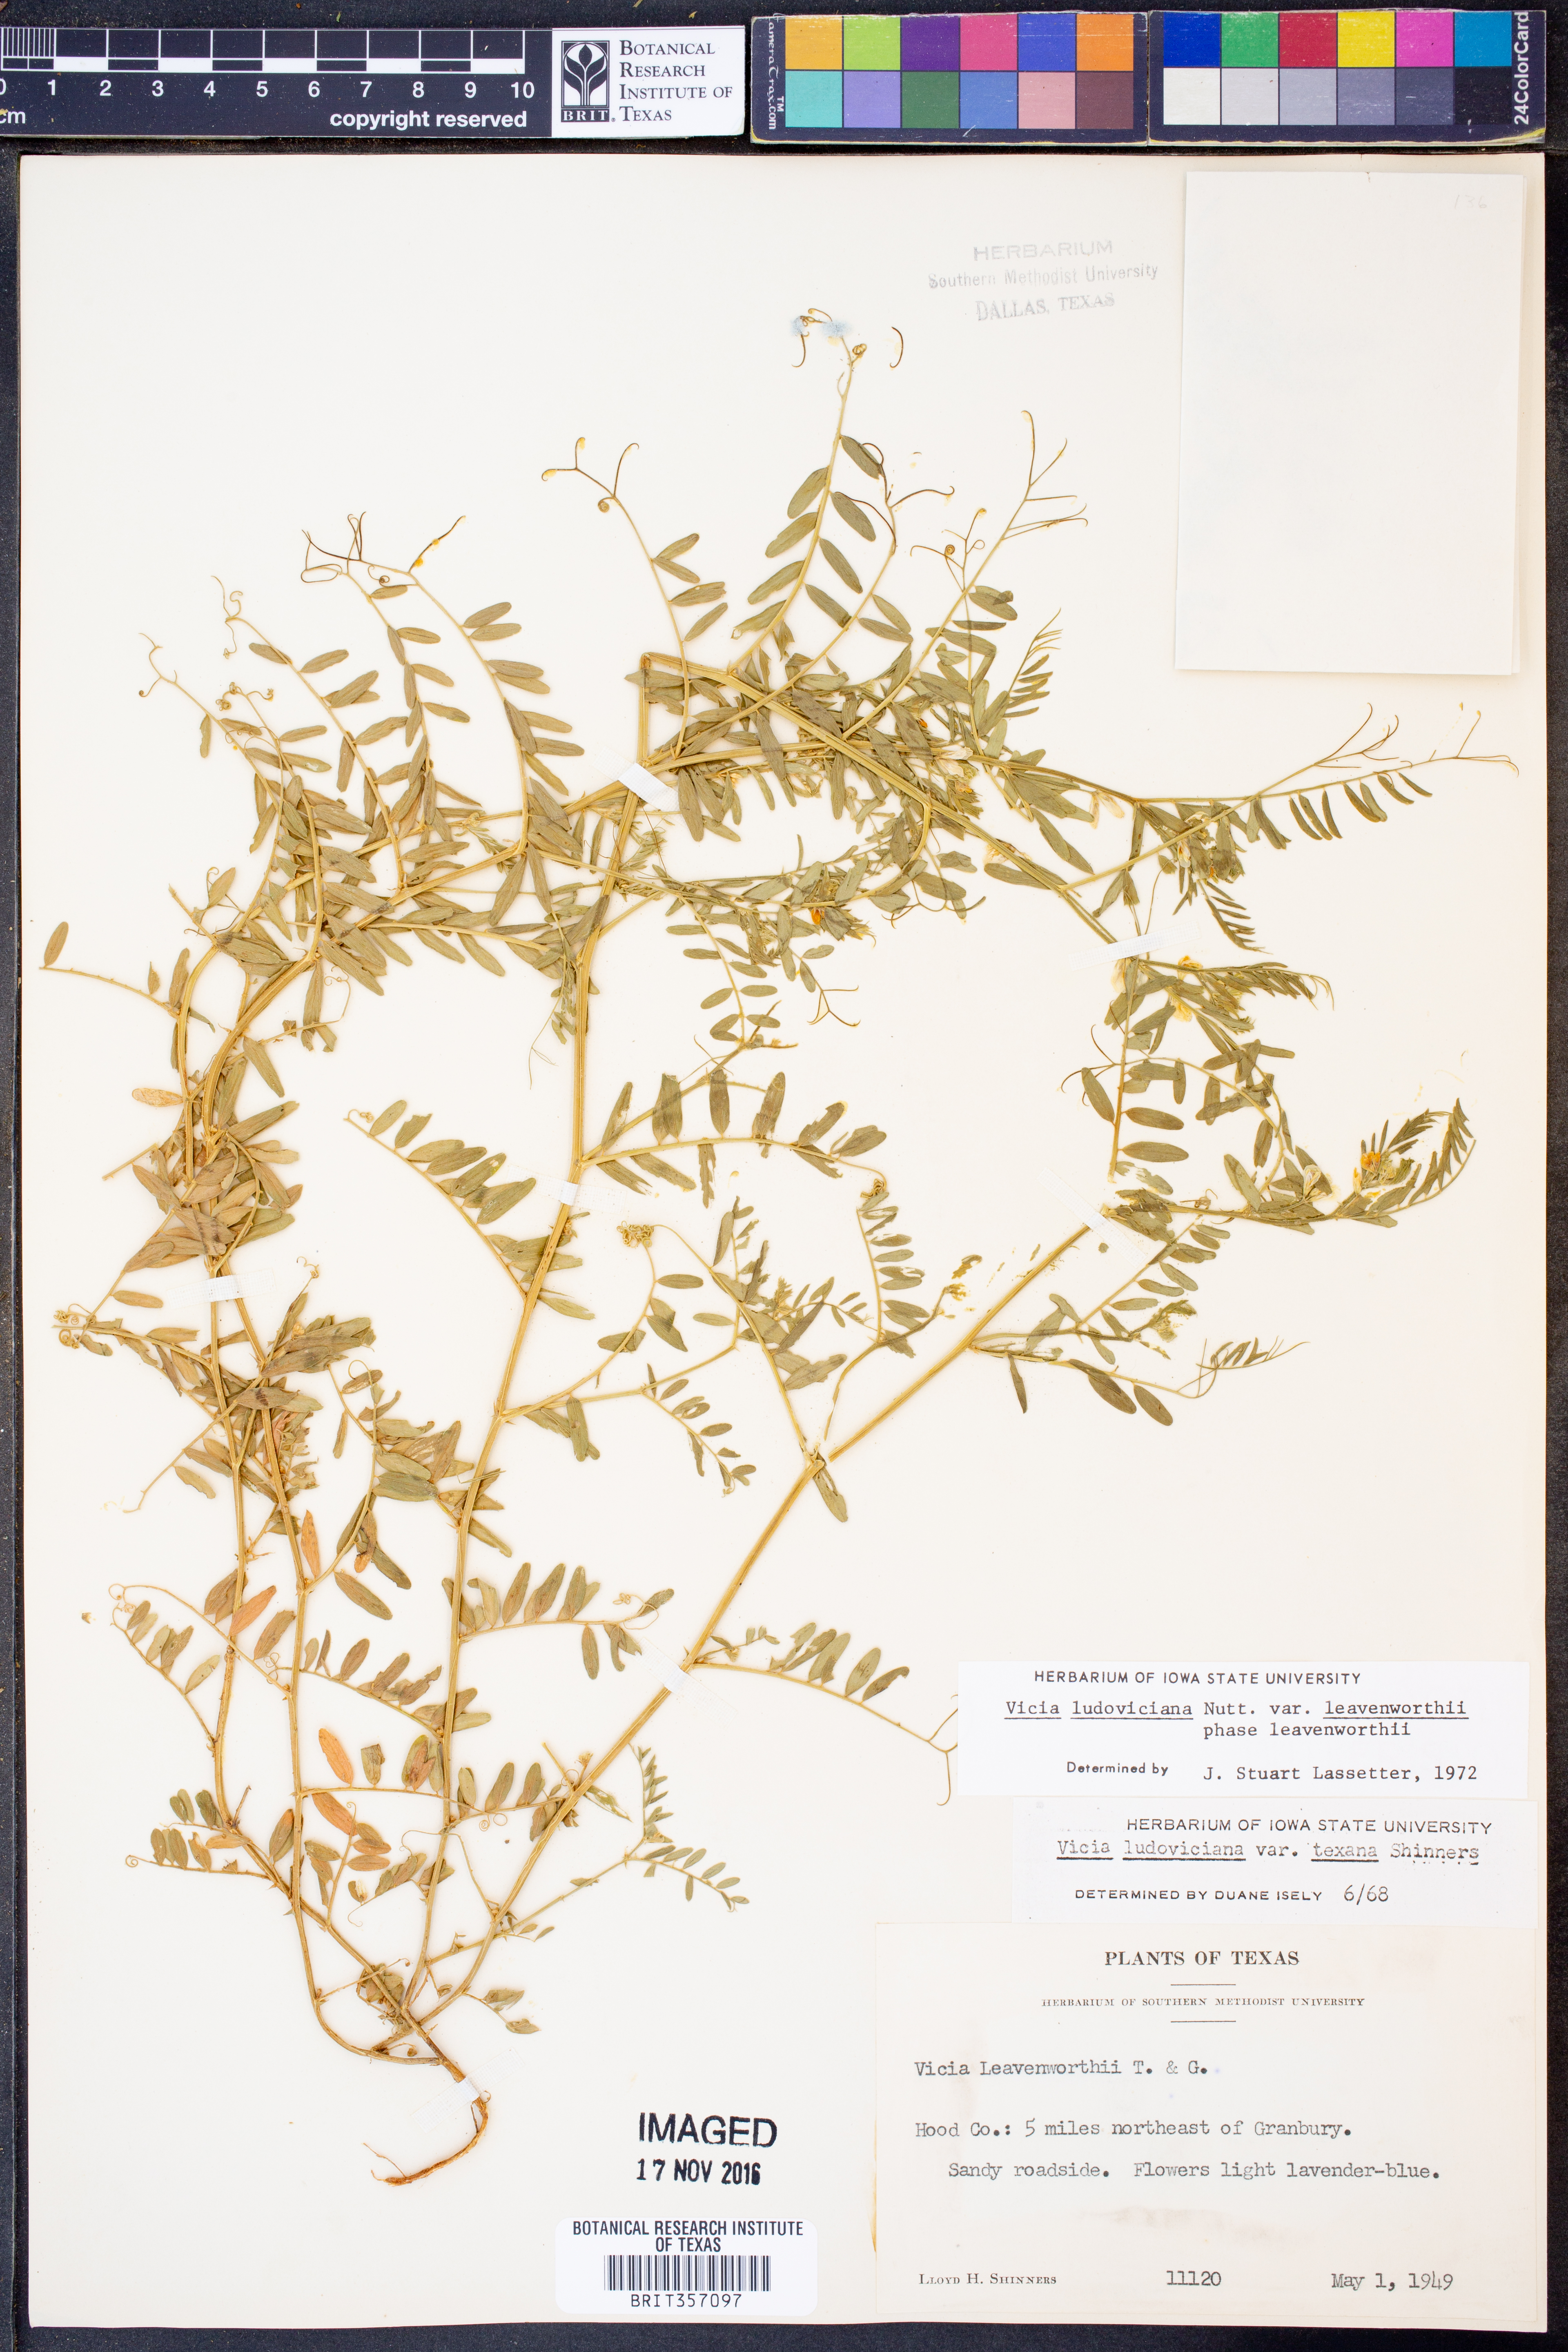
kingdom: Plantae
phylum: Tracheophyta
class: Magnoliopsida
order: Fabales
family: Fabaceae
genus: Vicia
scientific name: Vicia ludoviciana
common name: Louisiana vetch
